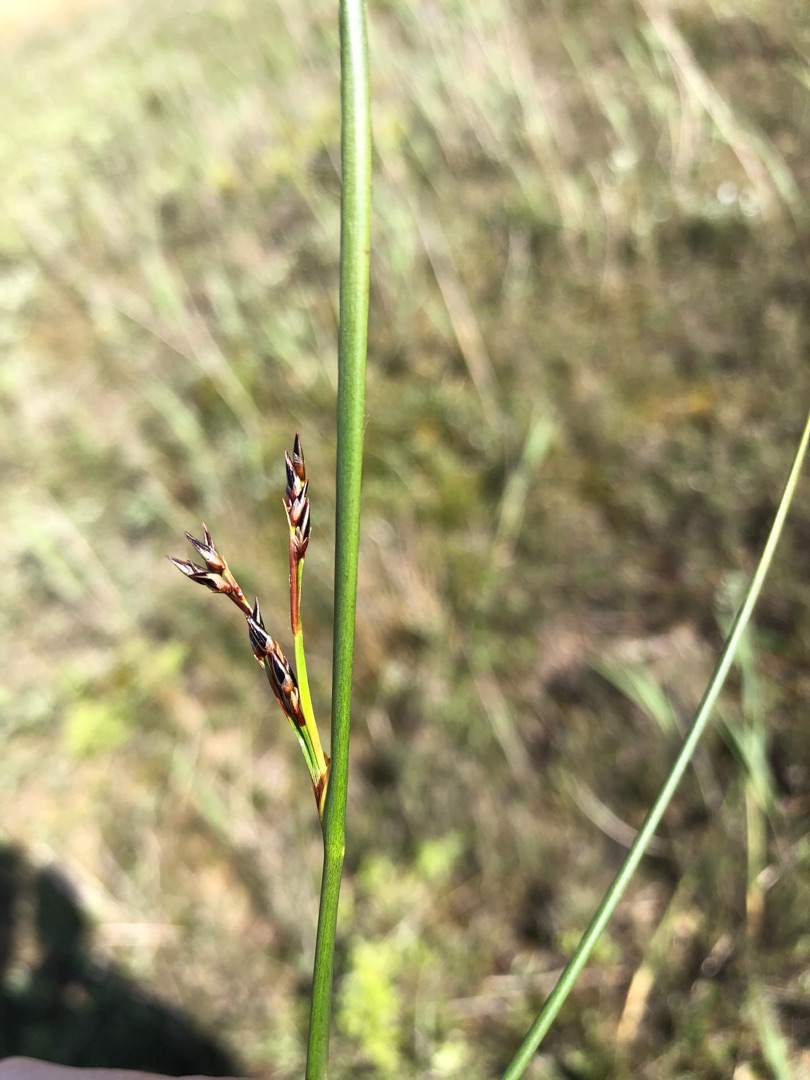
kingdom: Plantae
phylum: Tracheophyta
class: Liliopsida
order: Poales
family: Juncaceae
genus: Juncus
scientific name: Juncus balticus
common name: Klit-siv
